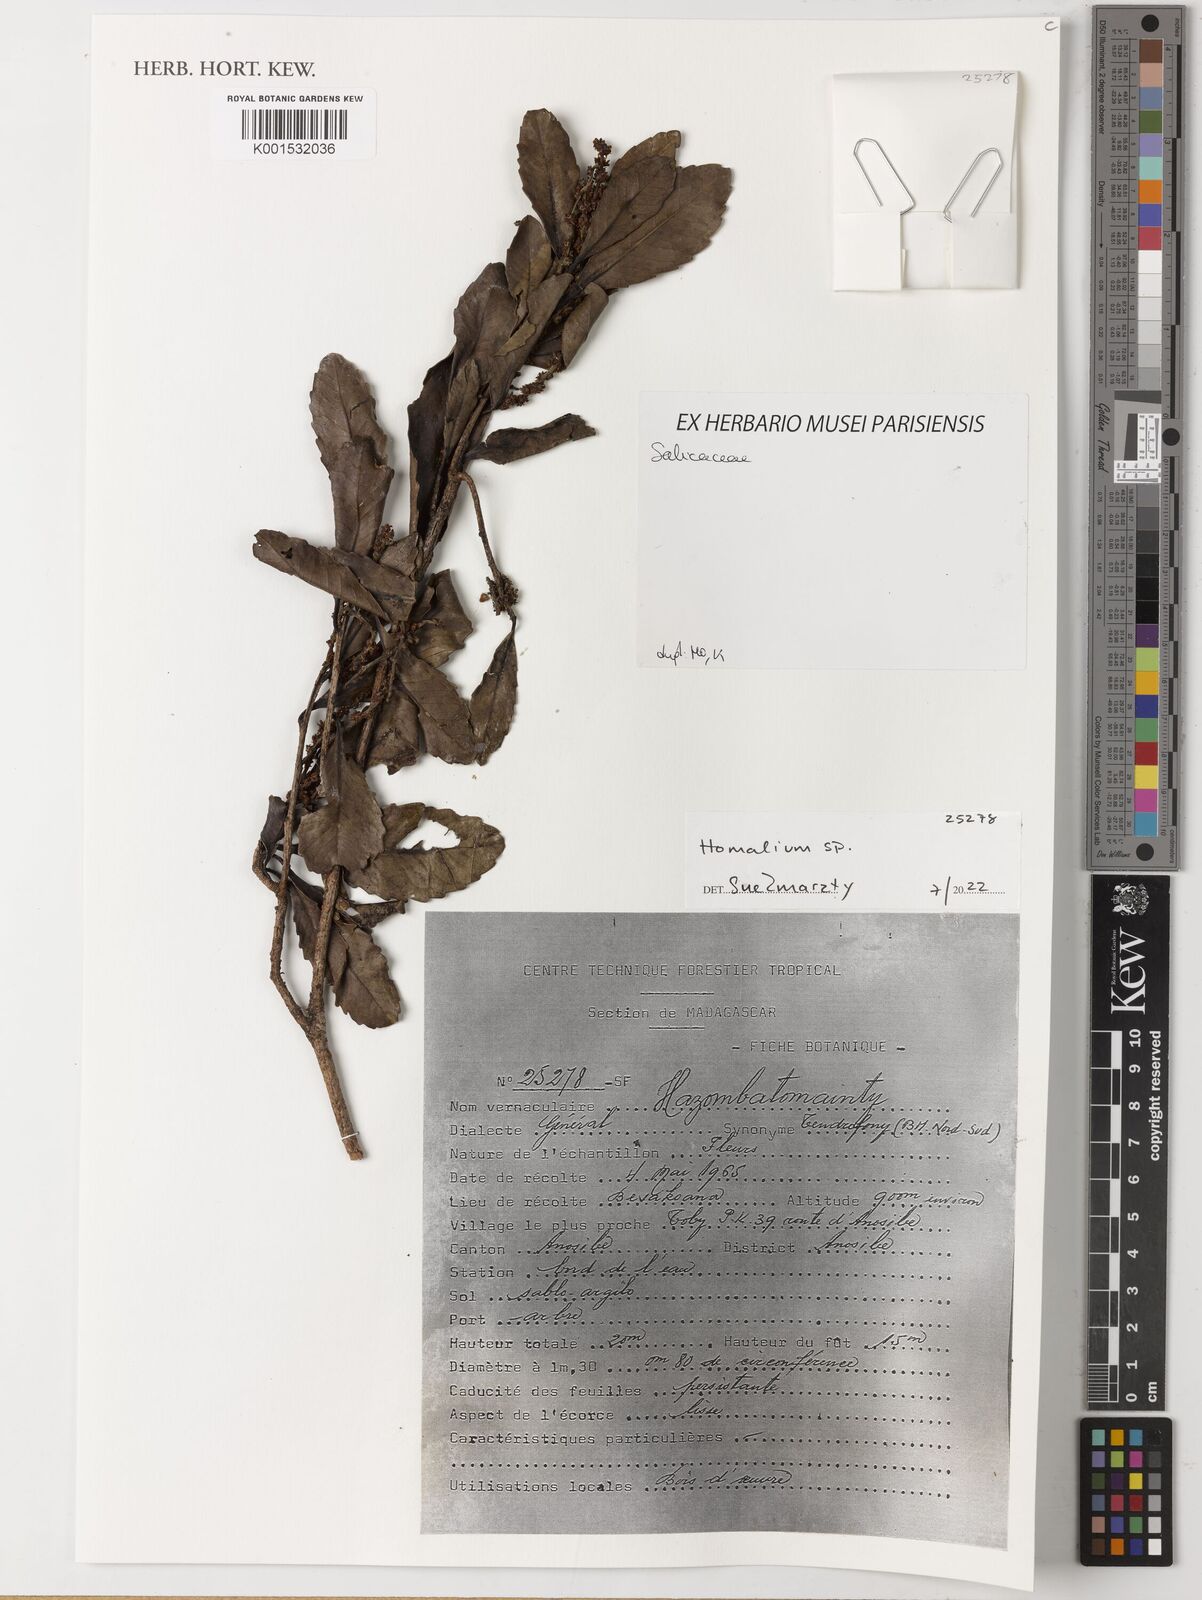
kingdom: Plantae
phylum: Tracheophyta
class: Magnoliopsida
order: Malpighiales
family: Salicaceae
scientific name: Salicaceae
